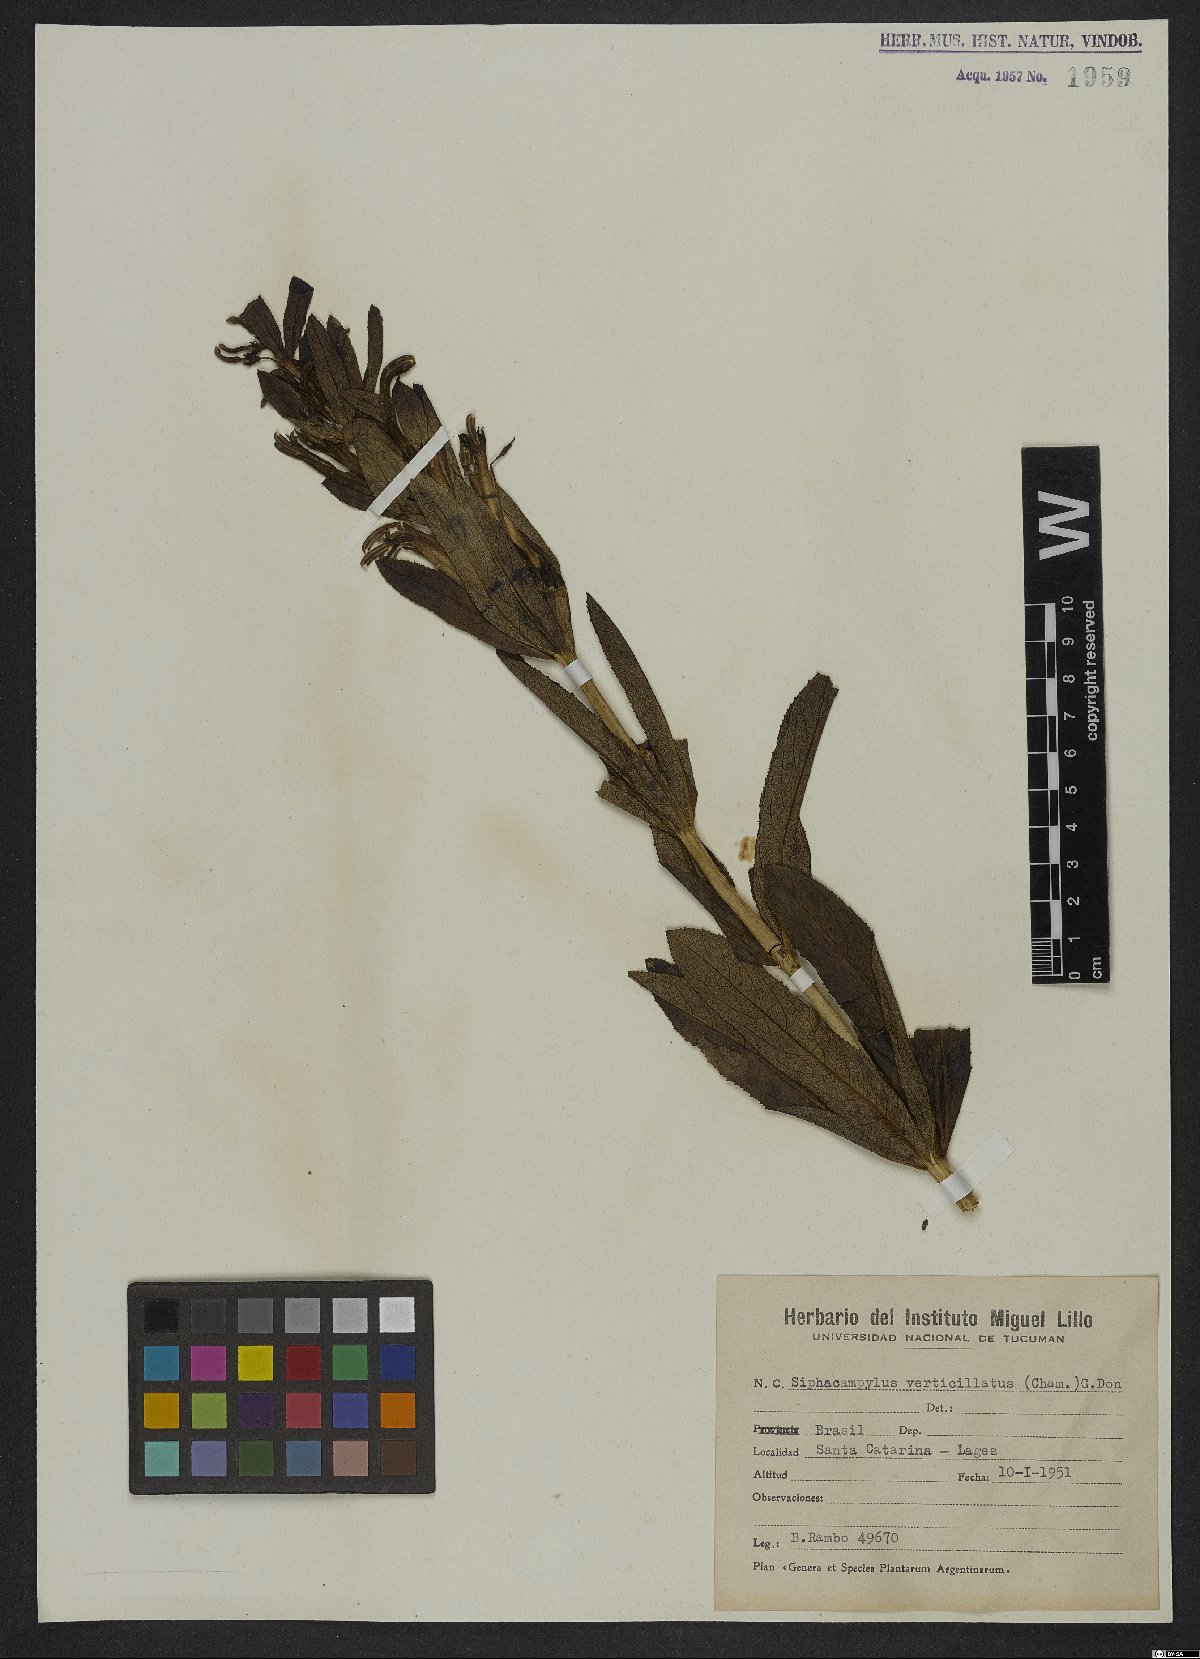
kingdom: Plantae
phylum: Tracheophyta
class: Magnoliopsida
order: Asterales
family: Campanulaceae
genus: Siphocampylus
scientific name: Siphocampylus verticillatus
